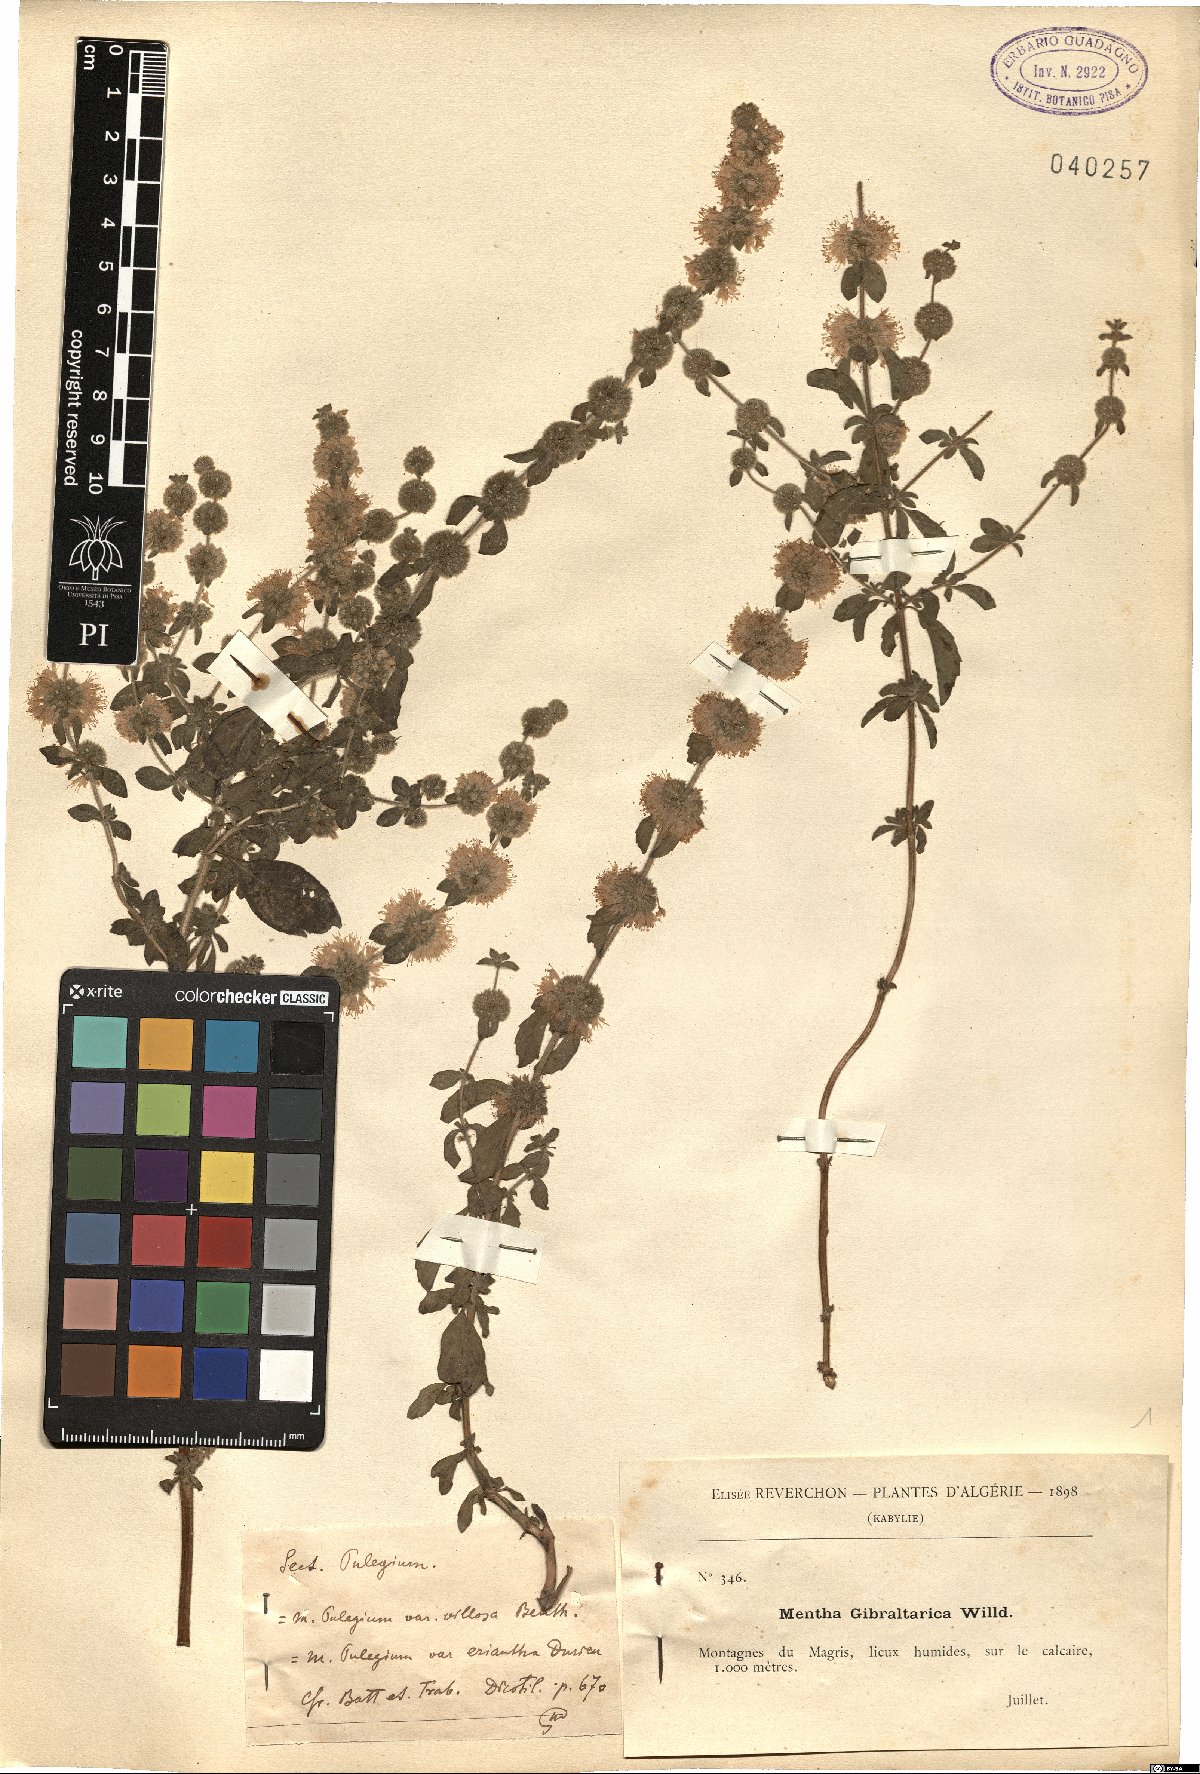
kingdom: Plantae
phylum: Tracheophyta
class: Magnoliopsida
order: Lamiales
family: Lamiaceae
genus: Mentha
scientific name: Mentha pulegium
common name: Pennyroyal
